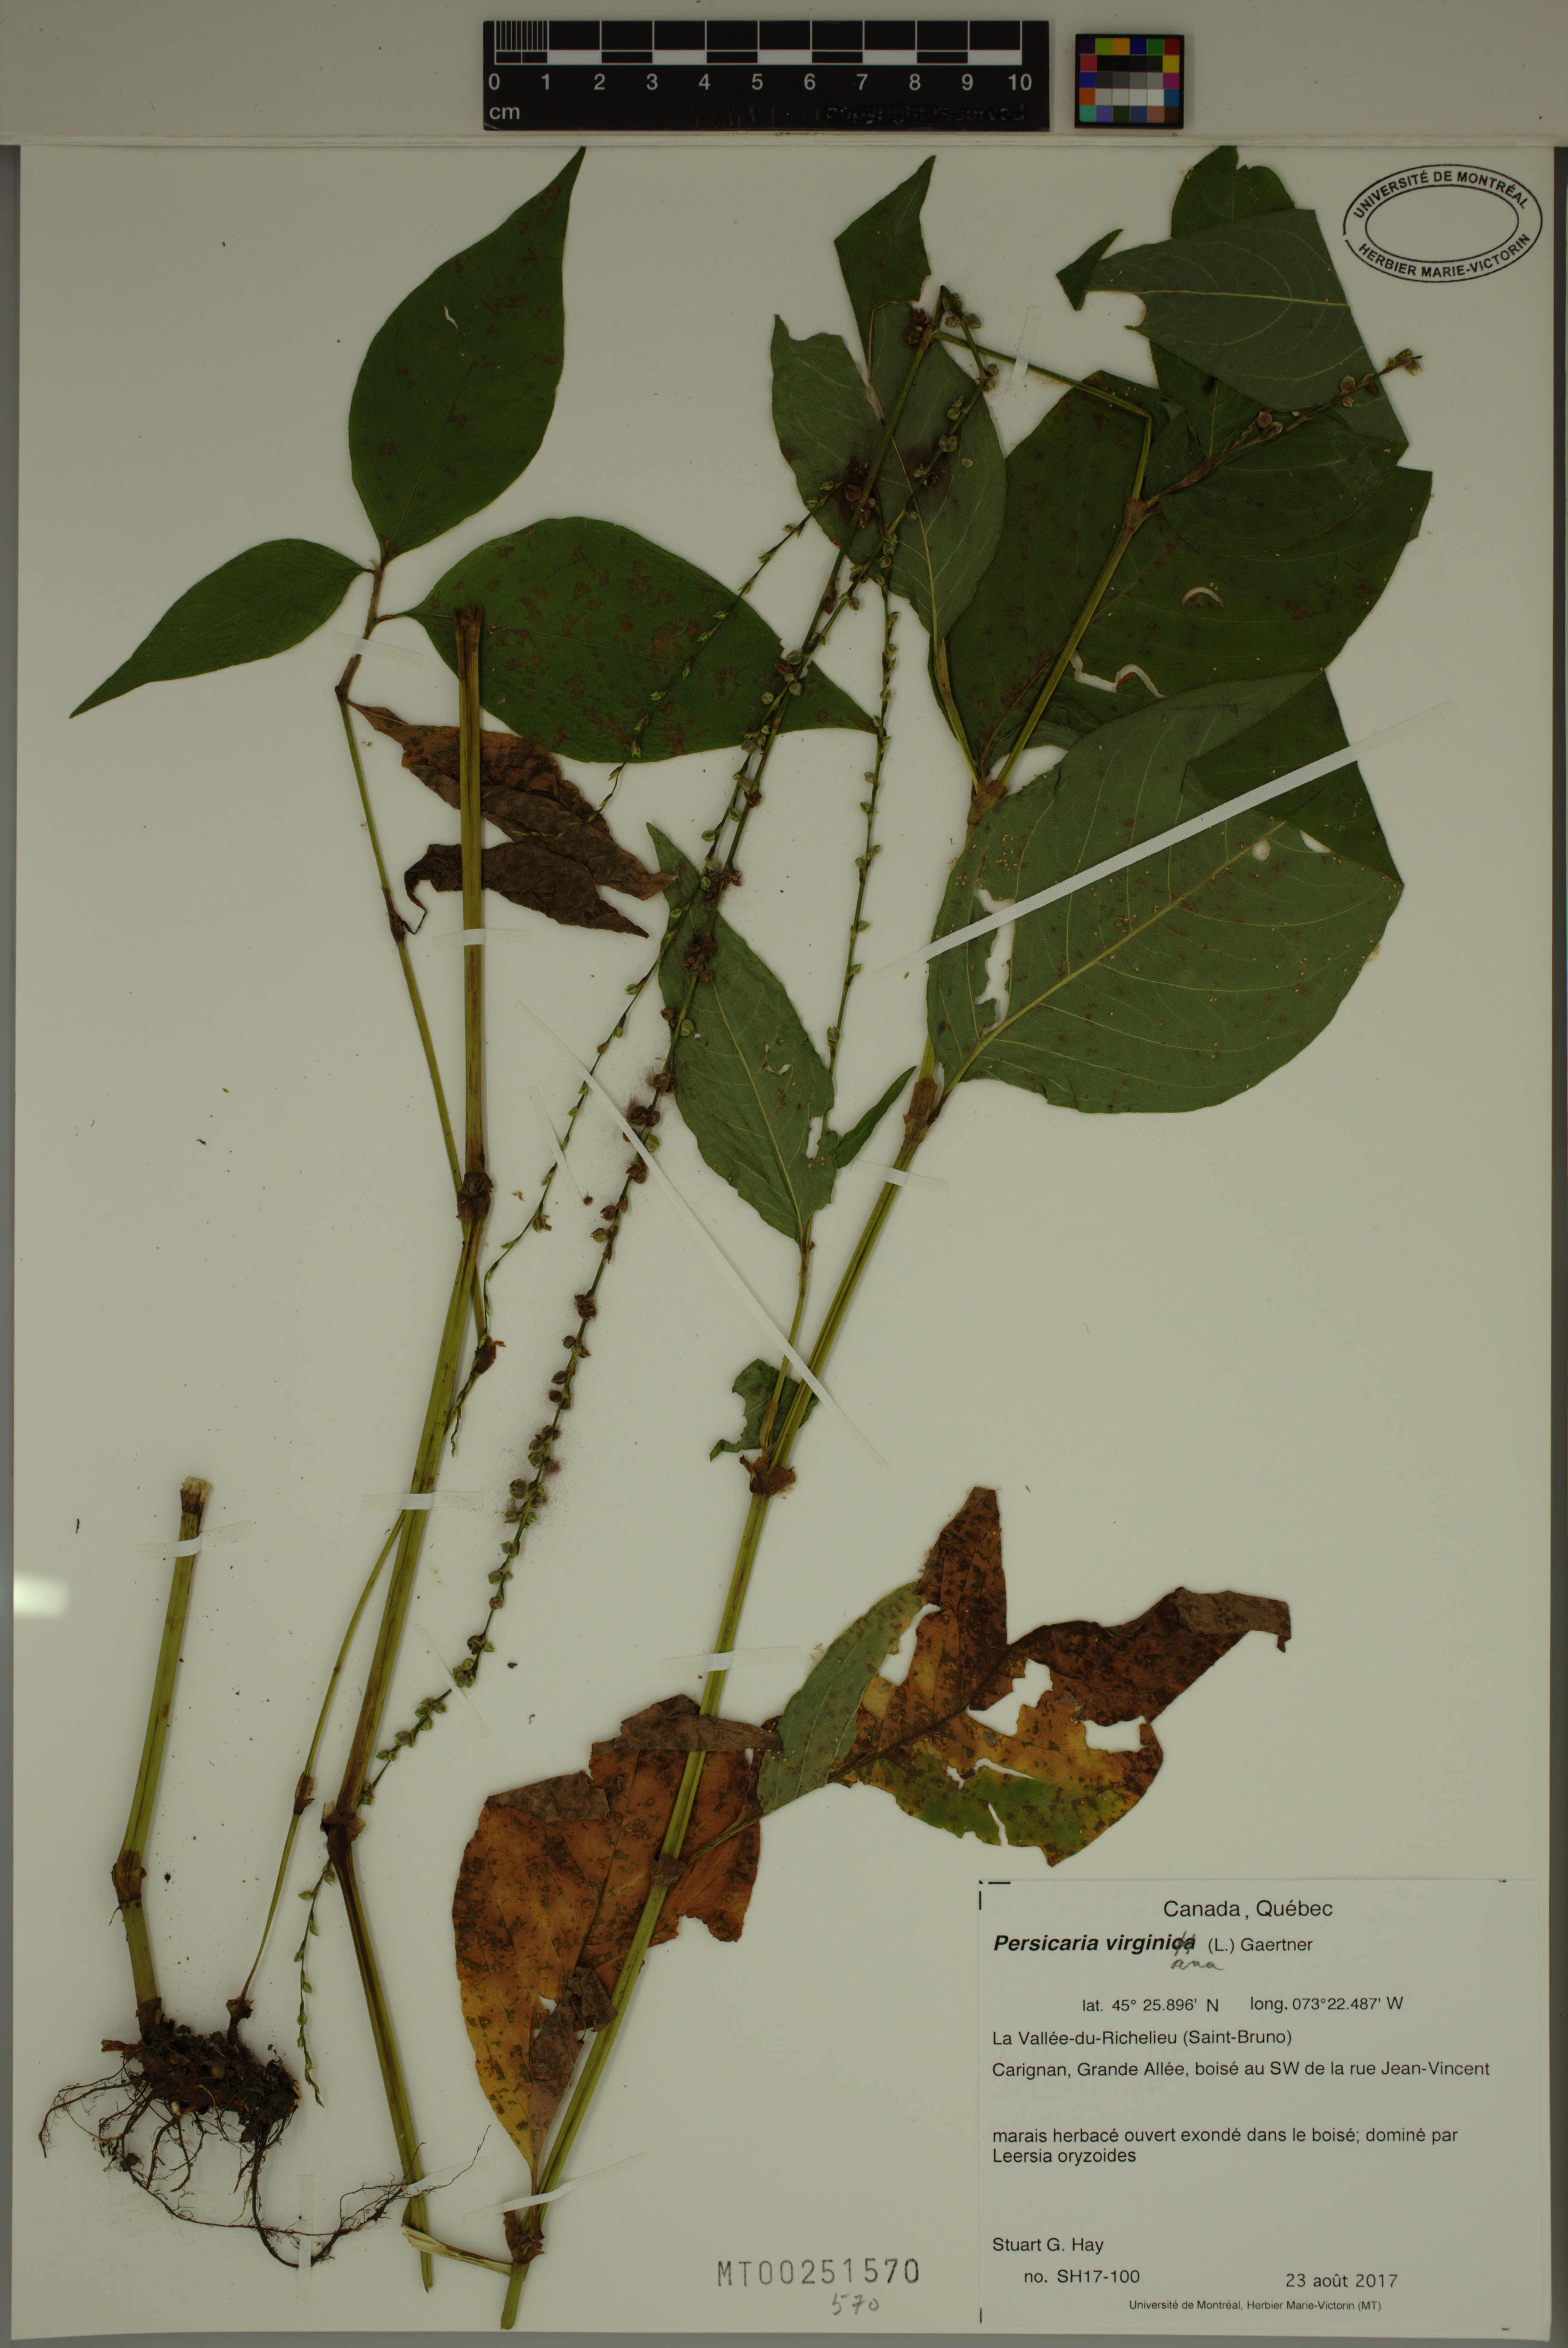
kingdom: Plantae
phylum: Tracheophyta
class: Magnoliopsida
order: Caryophyllales
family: Polygonaceae
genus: Persicaria
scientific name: Persicaria virginiana
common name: Jumpseed
